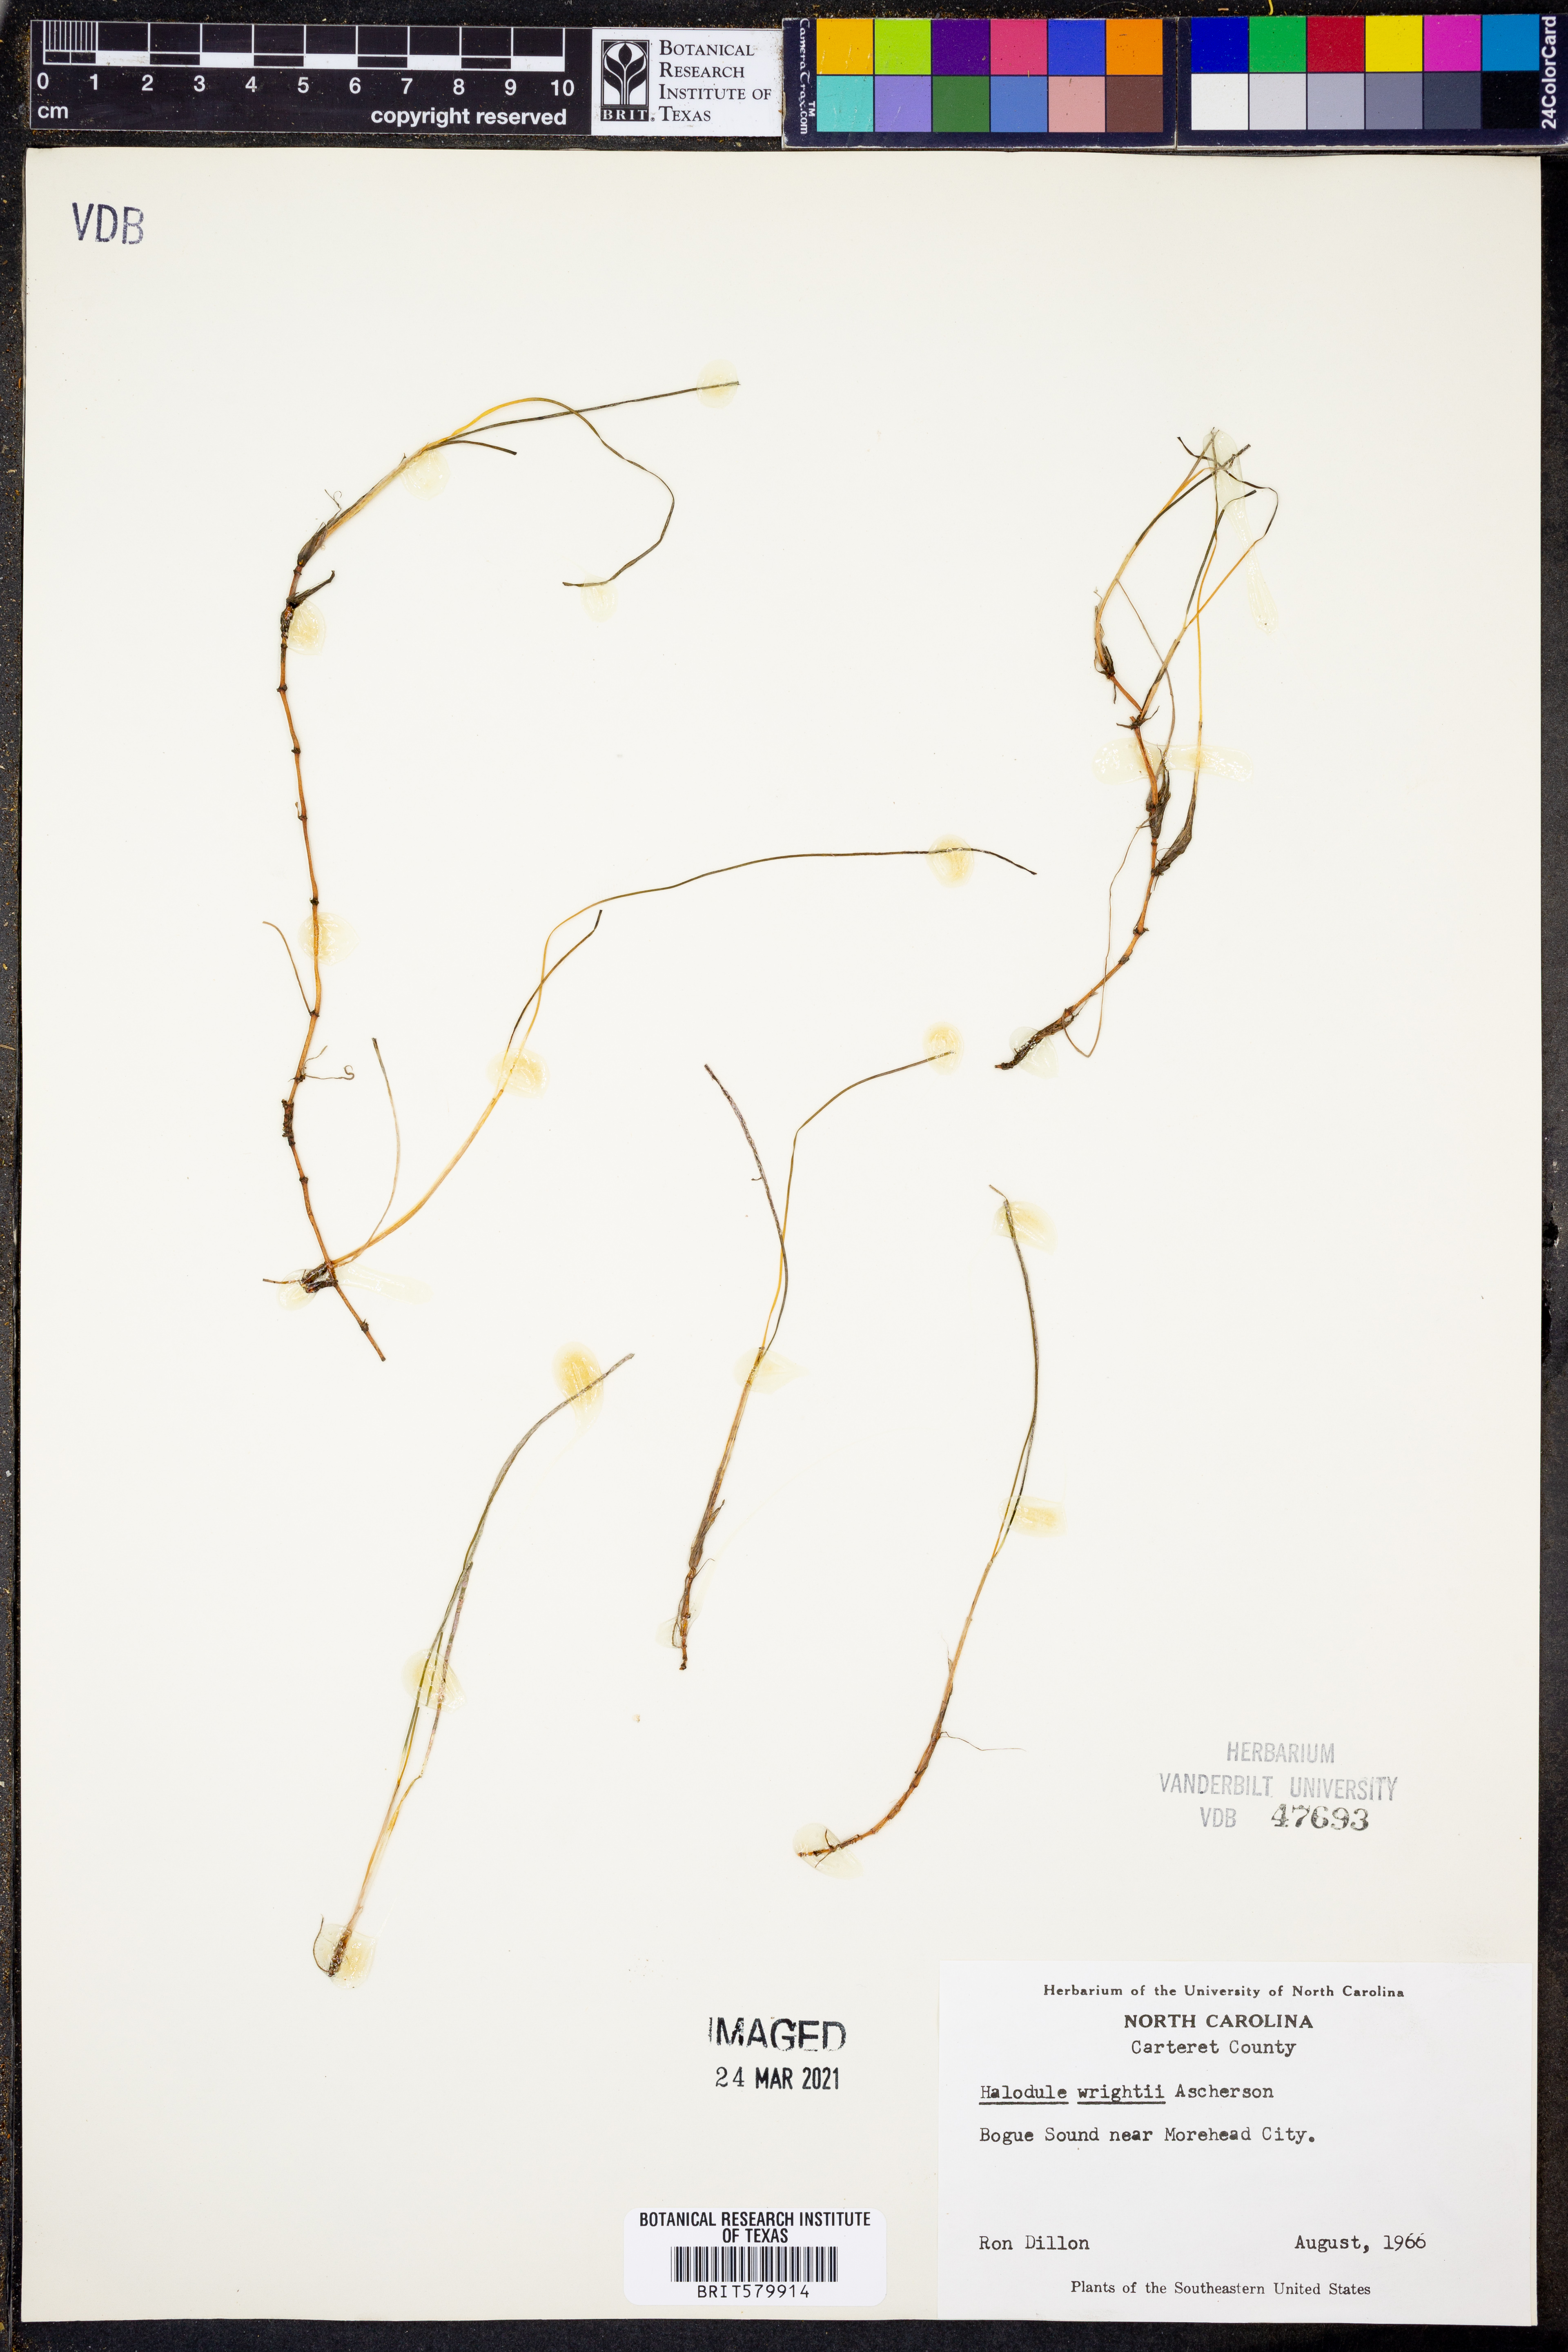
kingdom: Plantae
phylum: Tracheophyta
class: Liliopsida
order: Alismatales
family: Cymodoceaceae
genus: Halodule
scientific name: Halodule wrightii
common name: Shoalgrass
